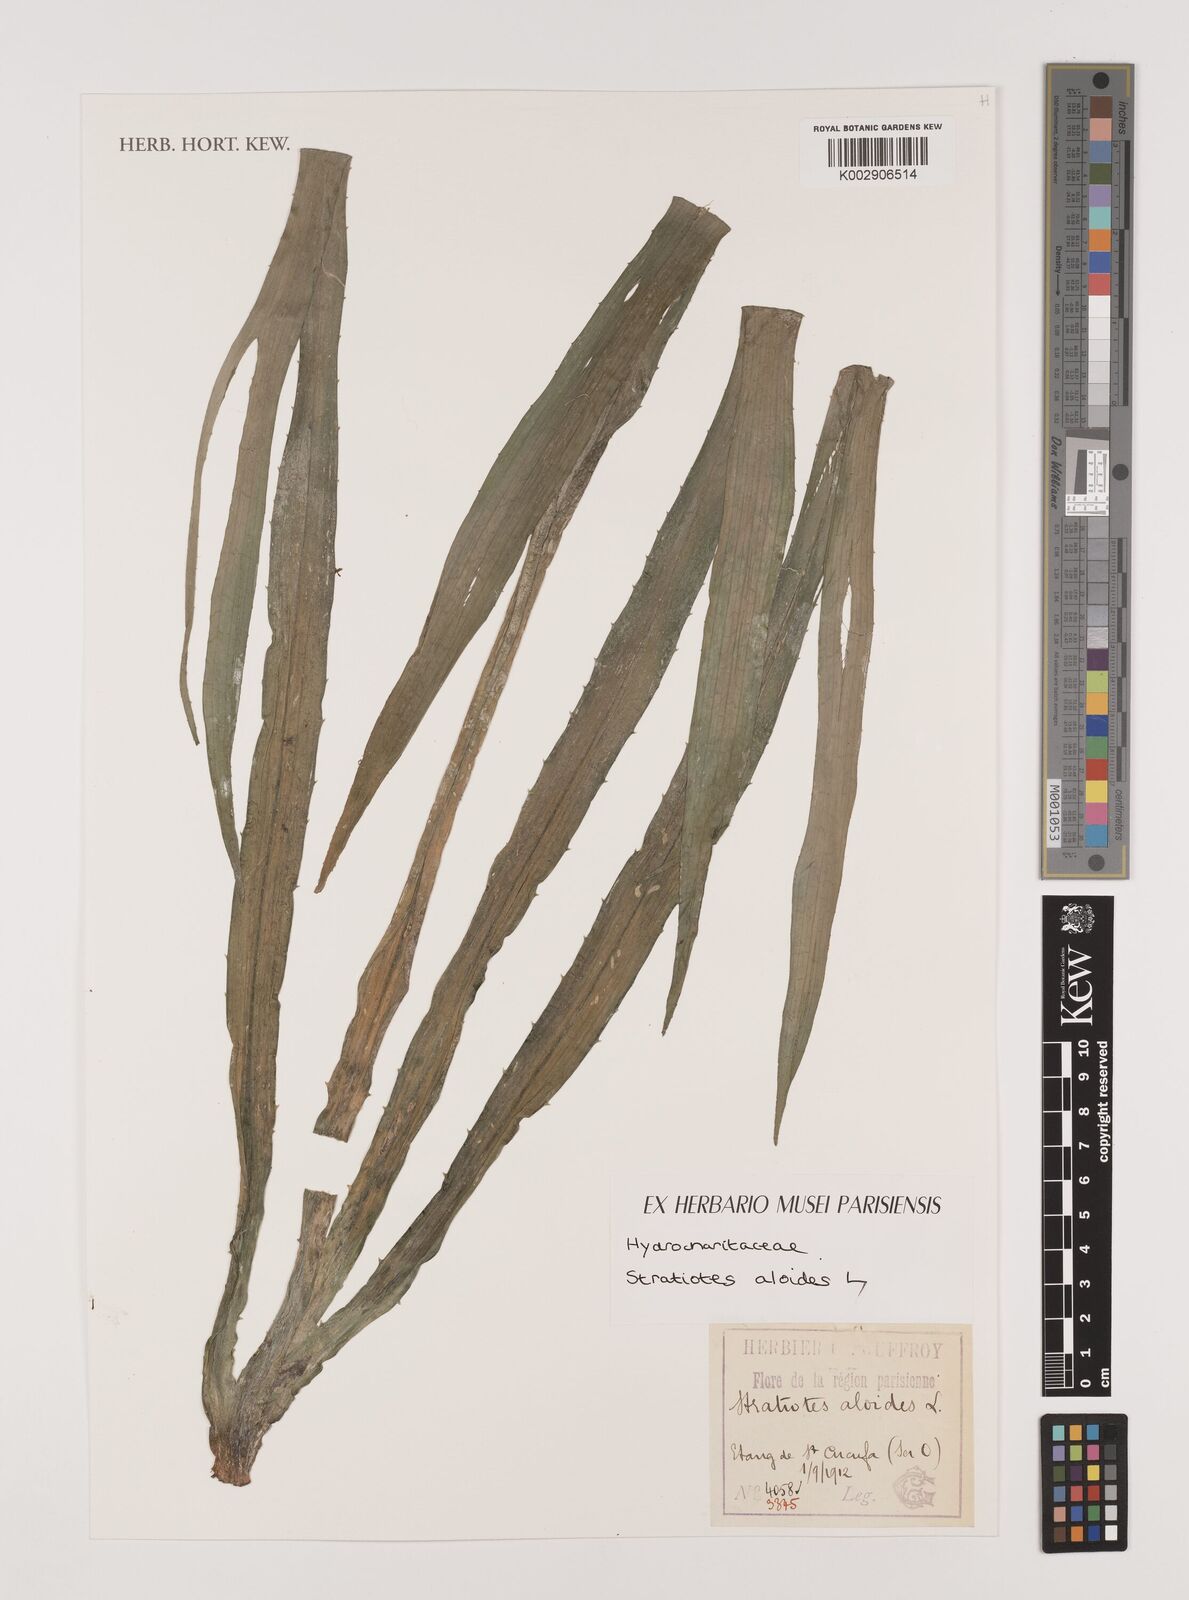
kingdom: Plantae
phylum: Tracheophyta
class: Liliopsida
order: Alismatales
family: Hydrocharitaceae
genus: Stratiotes
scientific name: Stratiotes aloides
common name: Water-soldier
